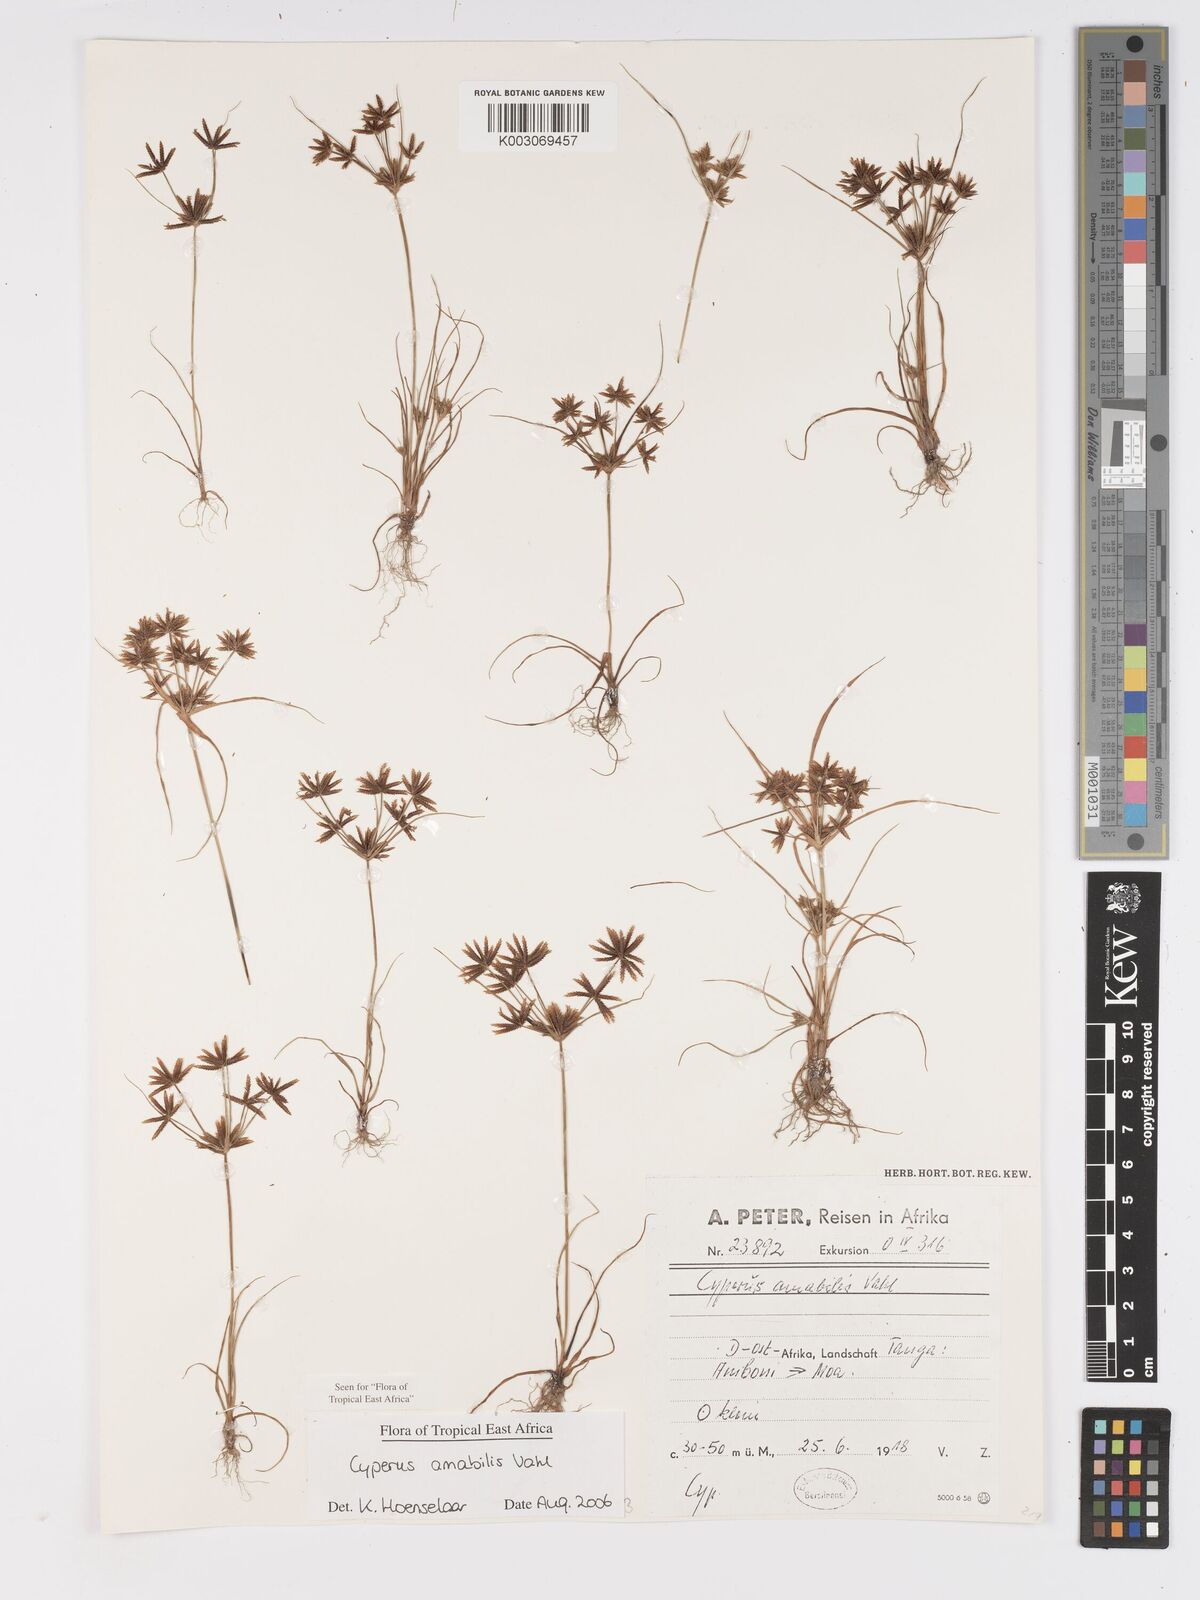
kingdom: Plantae
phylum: Tracheophyta
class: Liliopsida
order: Poales
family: Cyperaceae
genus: Cyperus
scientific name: Cyperus amabilis
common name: Foothill flat sedge
